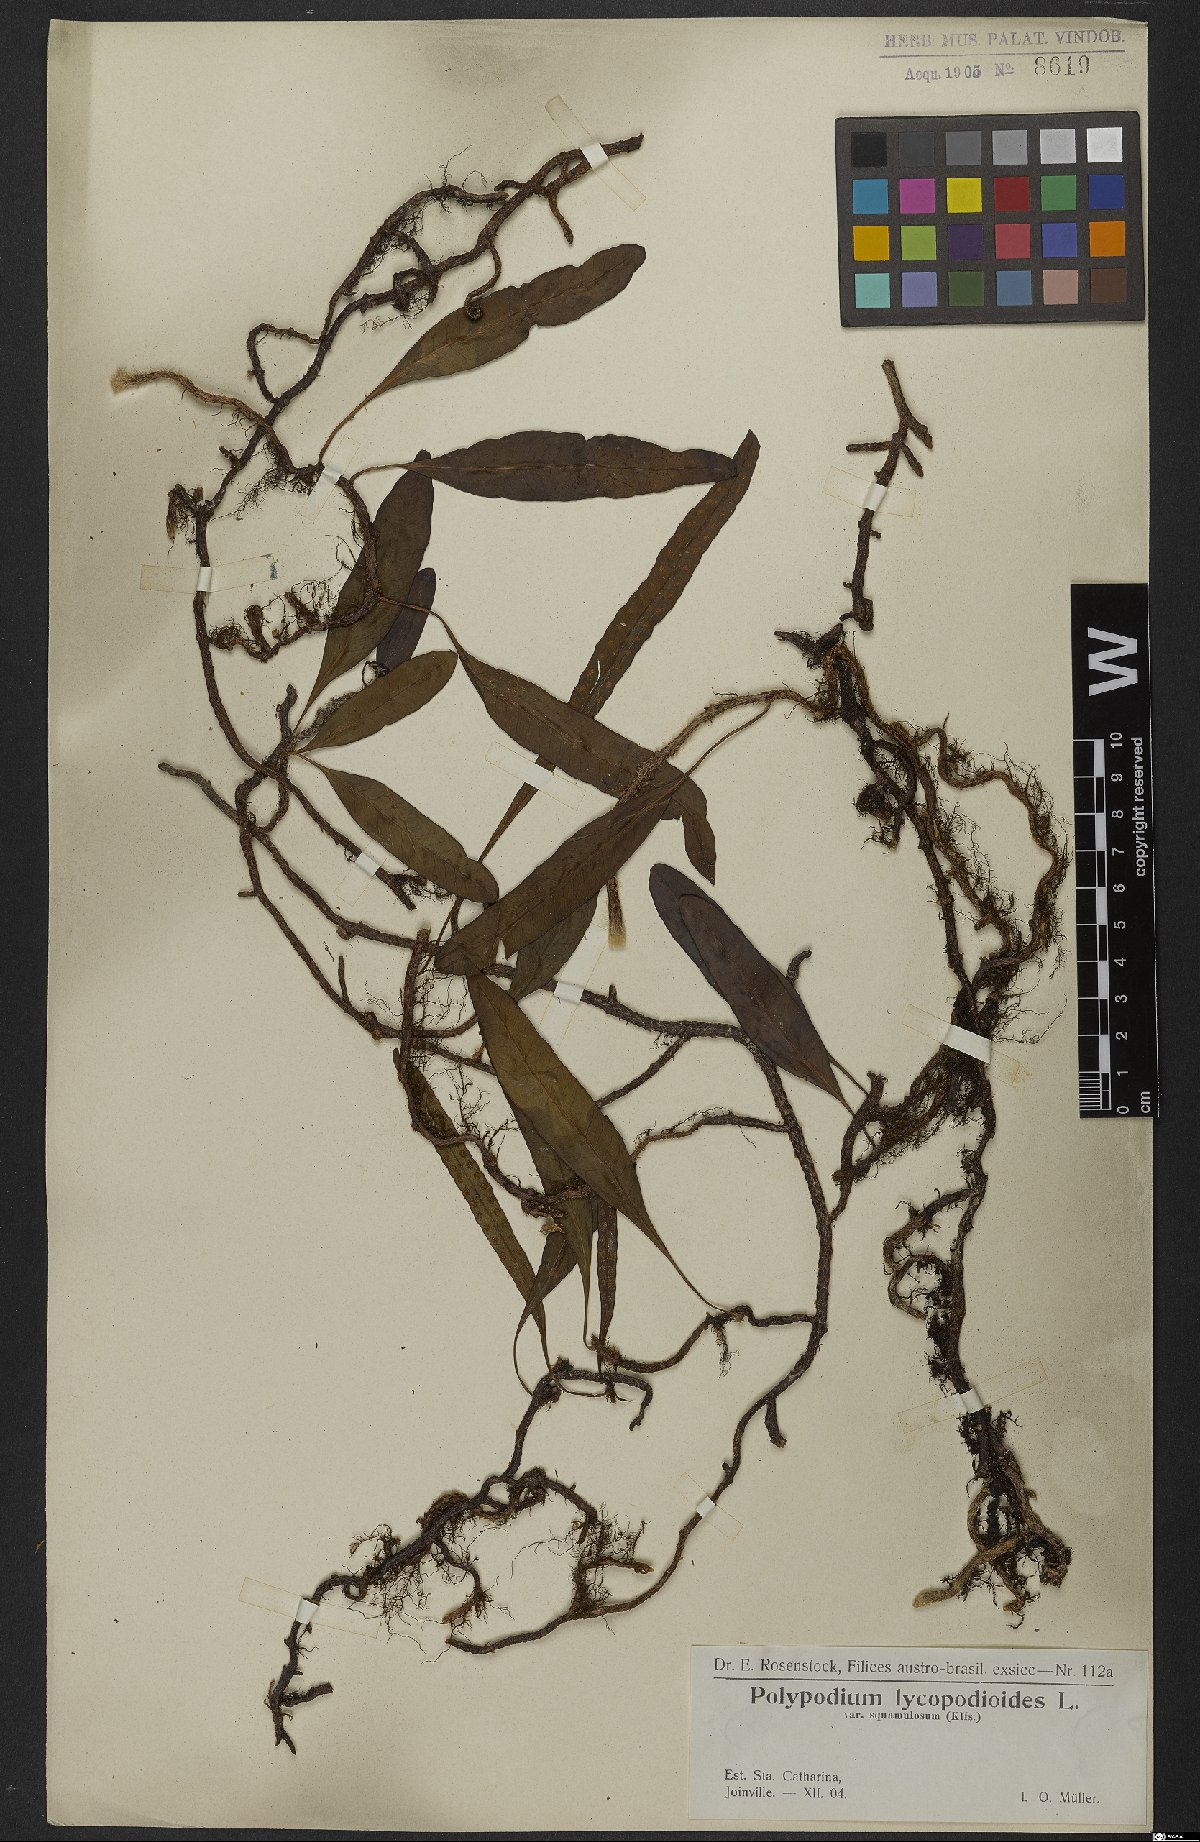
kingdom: Plantae
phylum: Tracheophyta
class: Polypodiopsida
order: Polypodiales
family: Polypodiaceae
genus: Microgramma
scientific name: Microgramma lycopodioides
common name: Bastard catclaw
